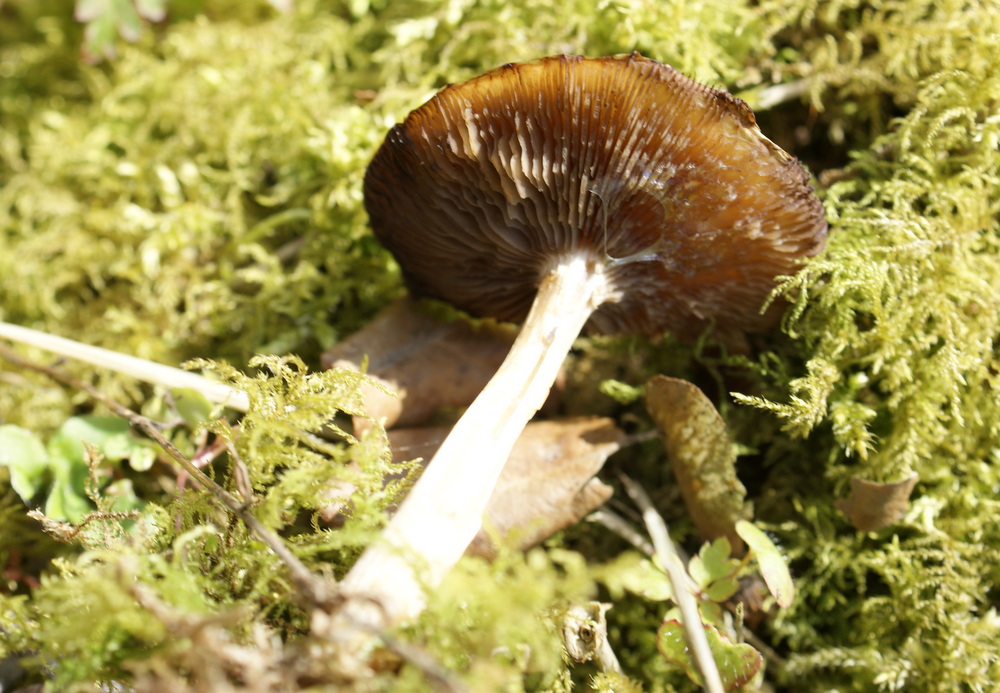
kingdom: Fungi
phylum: Basidiomycota
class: Agaricomycetes
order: Agaricales
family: Psathyrellaceae
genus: Psathyrella
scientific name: Psathyrella spadiceogrisea
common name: gråbrun mørkhat
